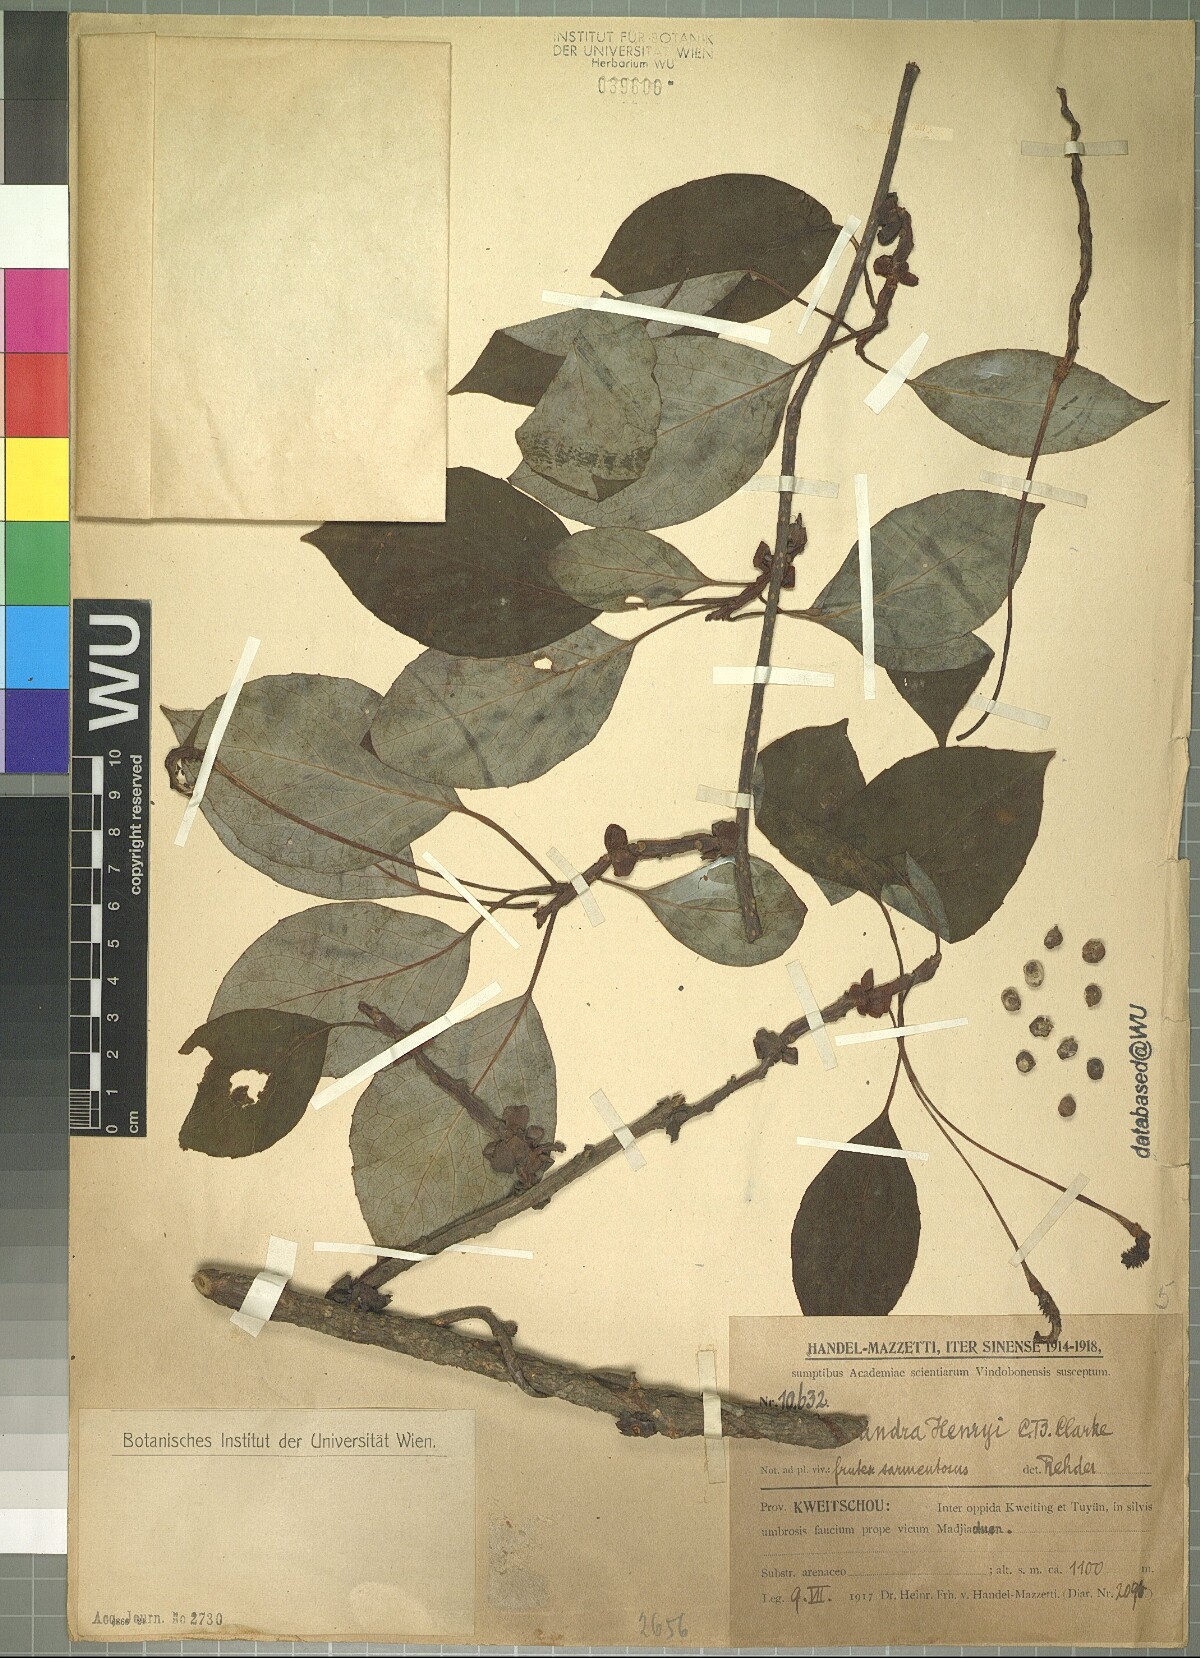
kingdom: Plantae
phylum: Tracheophyta
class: Magnoliopsida
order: Austrobaileyales
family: Schisandraceae
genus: Schisandra
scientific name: Schisandra henryi
